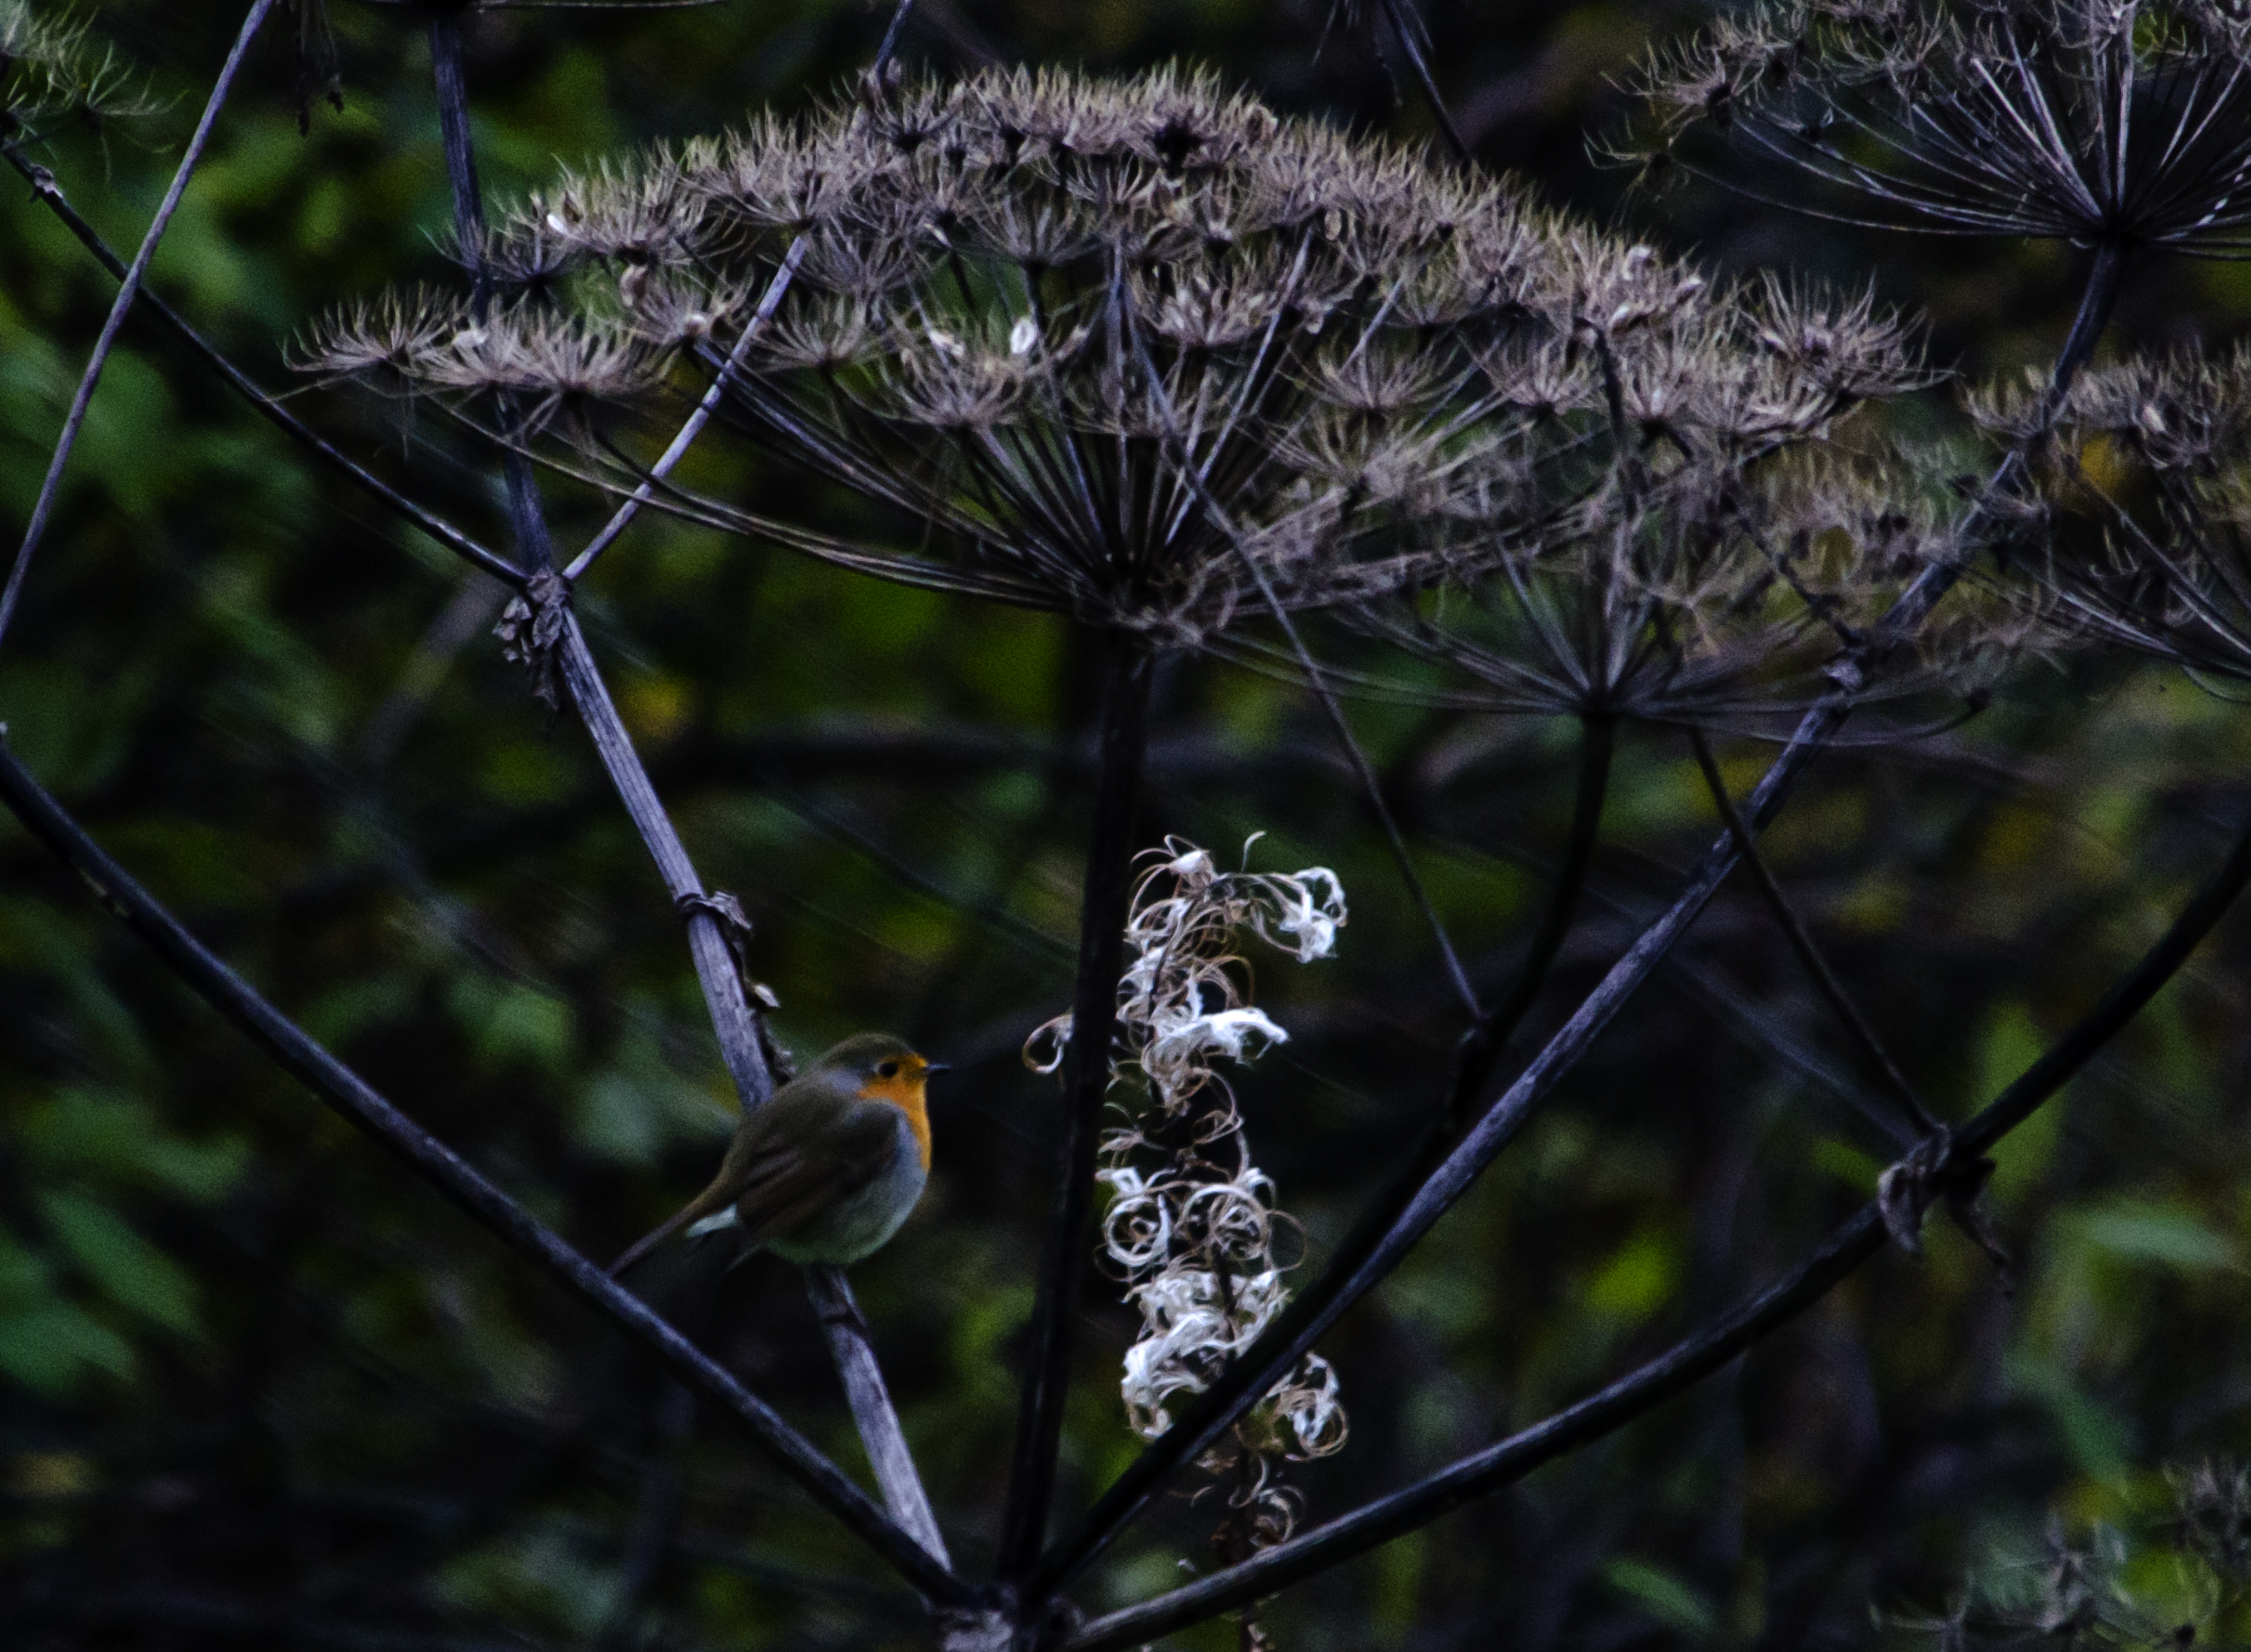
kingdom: Animalia
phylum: Chordata
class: Aves
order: Passeriformes
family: Muscicapidae
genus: Erithacus
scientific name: Erithacus rubecula
